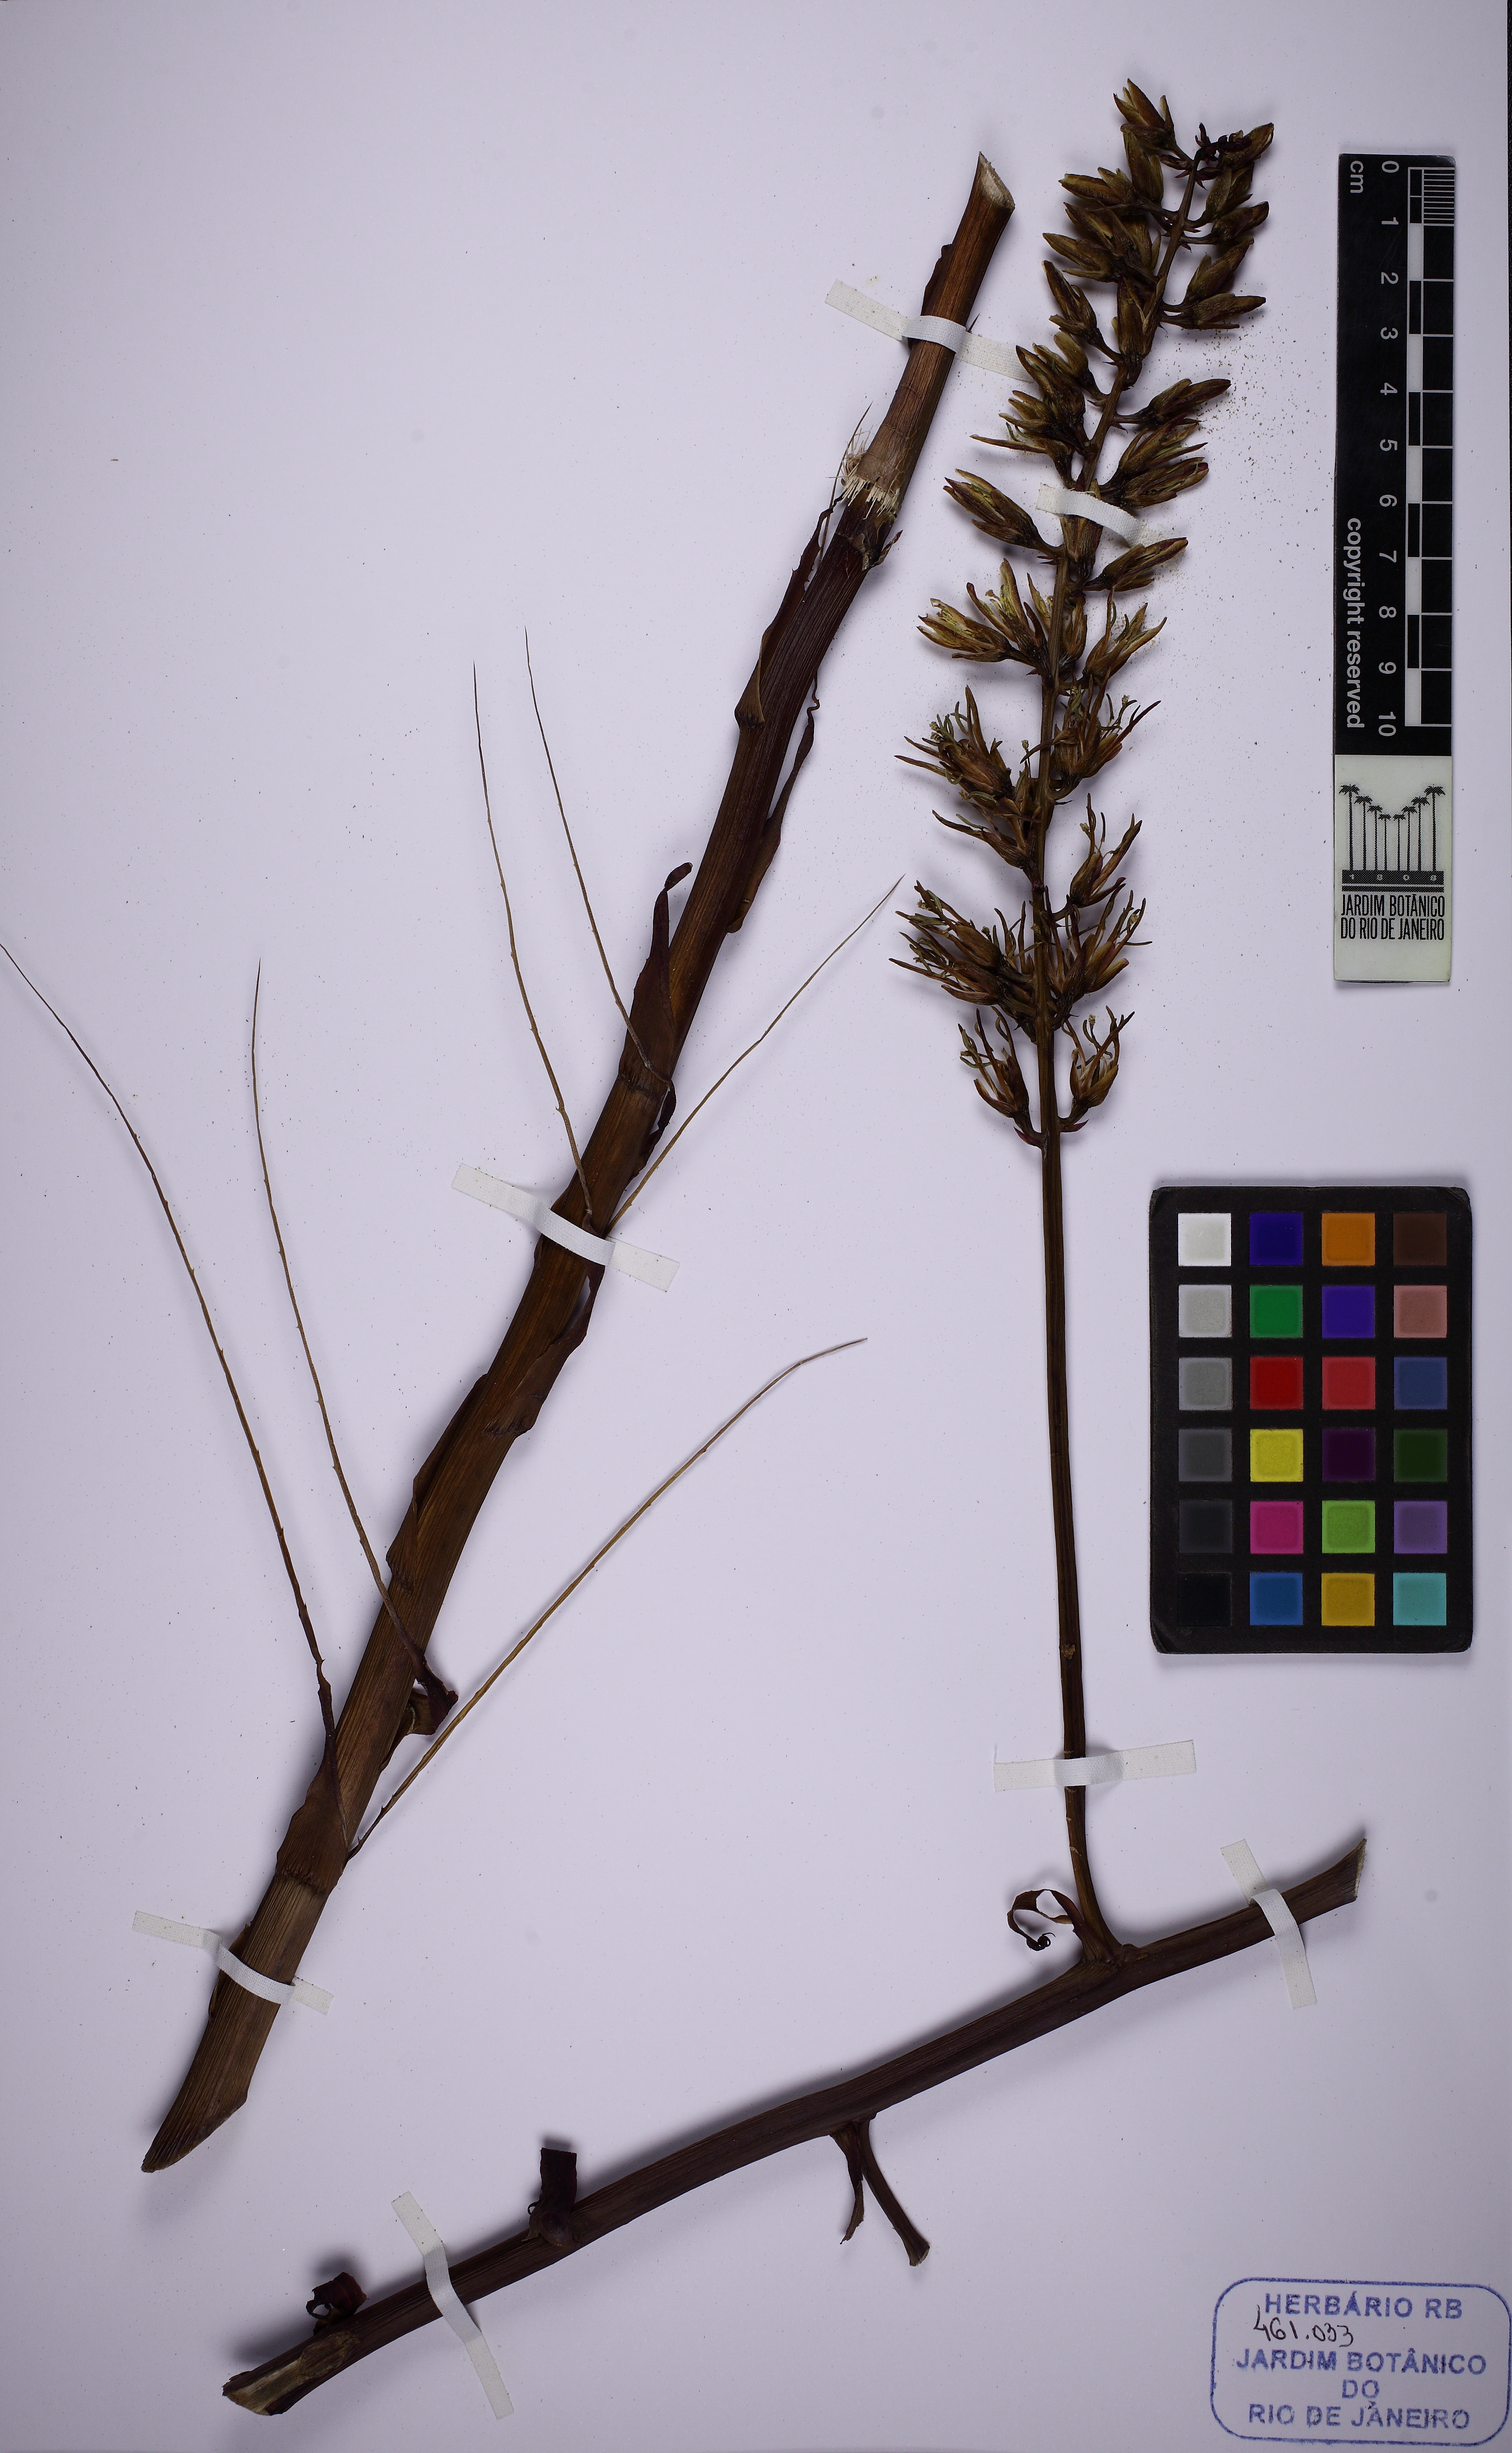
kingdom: Plantae
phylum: Tracheophyta
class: Liliopsida
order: Poales
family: Bromeliaceae
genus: Encholirium
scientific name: Encholirium horridum
